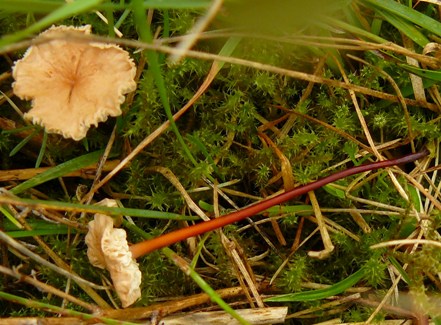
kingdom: Fungi
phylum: Basidiomycota
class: Agaricomycetes
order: Agaricales
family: Omphalotaceae
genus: Mycetinis
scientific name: Mycetinis scorodonius
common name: lille løghat
